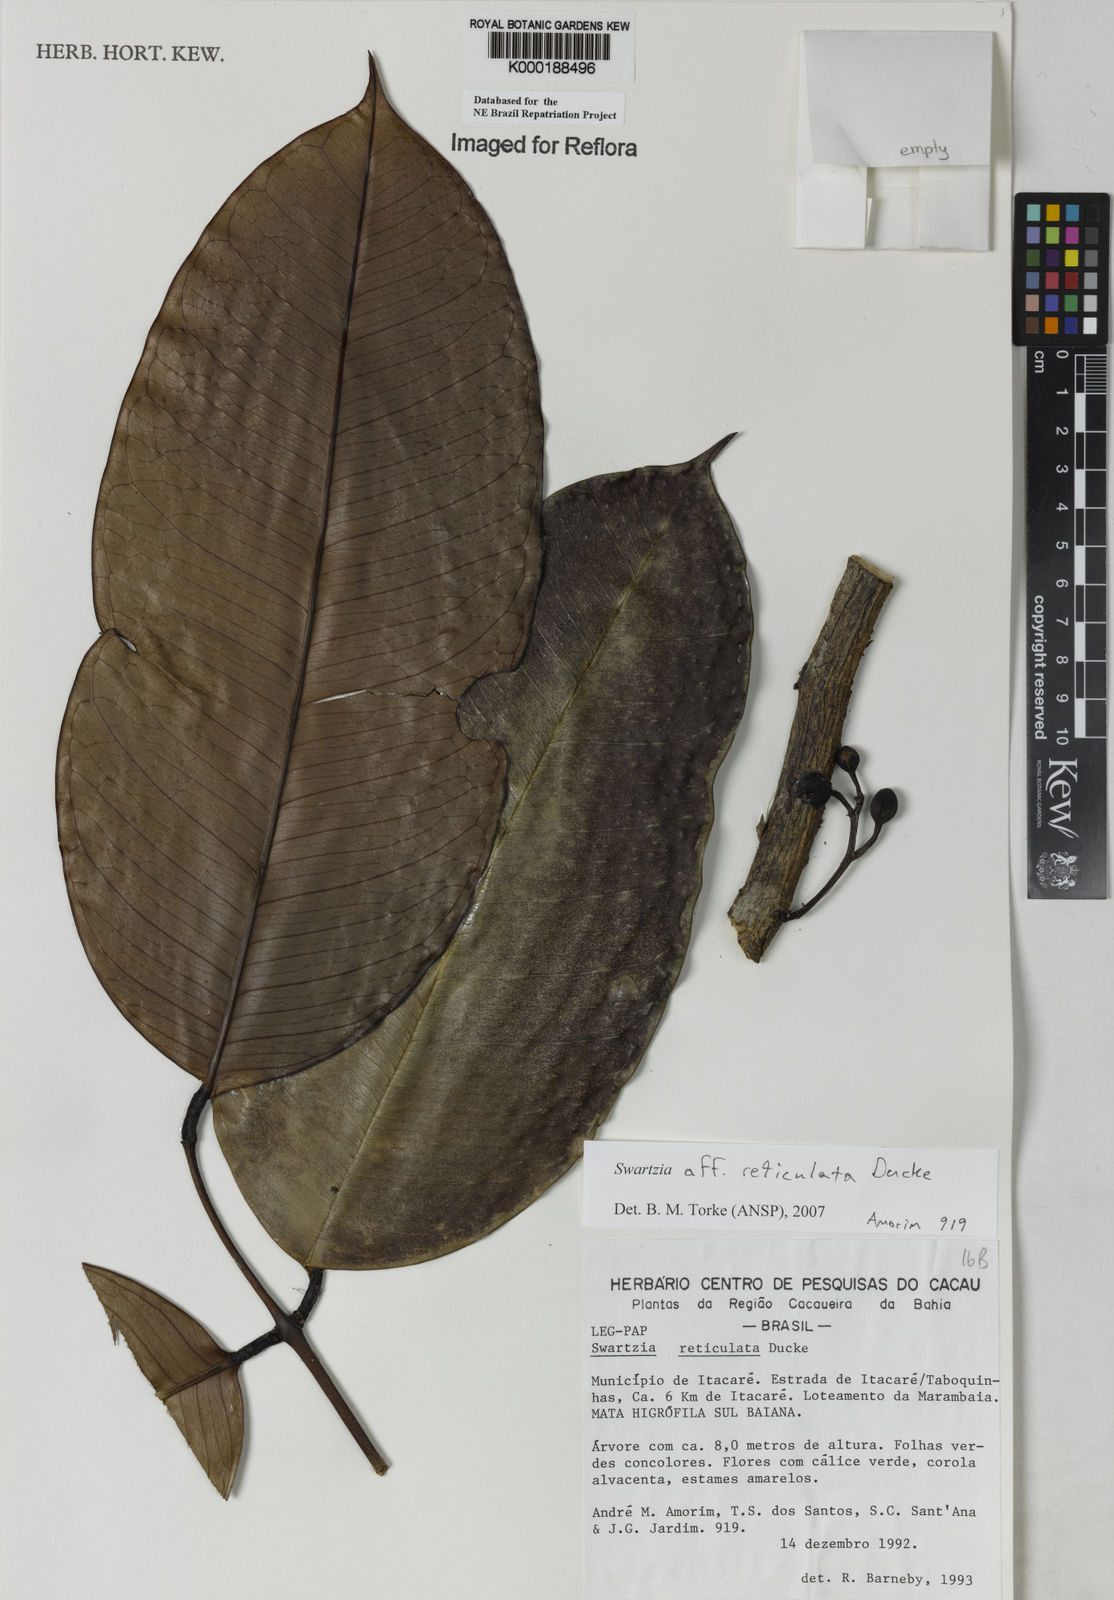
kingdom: Plantae
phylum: Tracheophyta
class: Magnoliopsida
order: Fabales
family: Fabaceae
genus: Swartzia
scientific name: Swartzia reticulata
